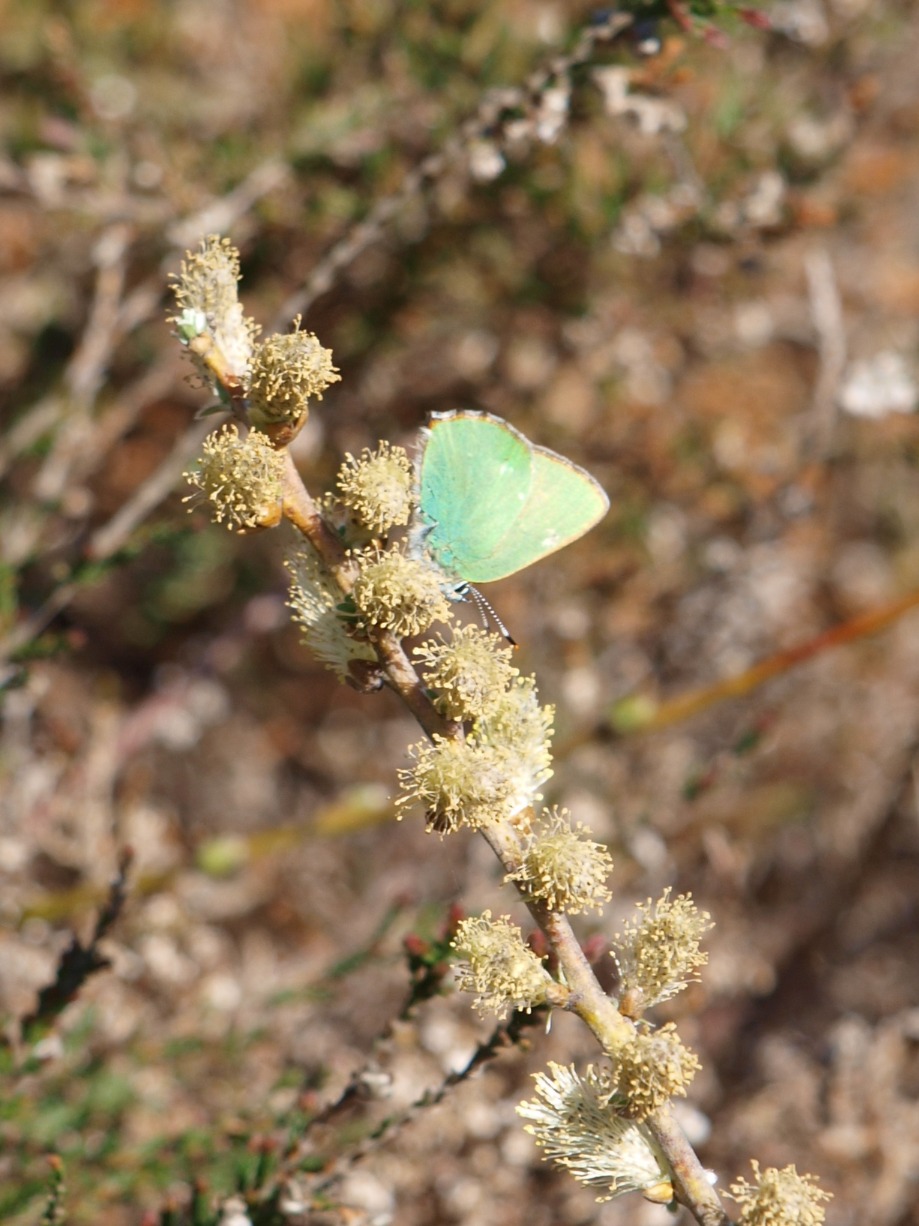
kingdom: Animalia
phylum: Arthropoda
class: Insecta
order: Lepidoptera
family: Lycaenidae
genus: Callophrys
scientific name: Callophrys rubi
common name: Grøn busksommerfugl
